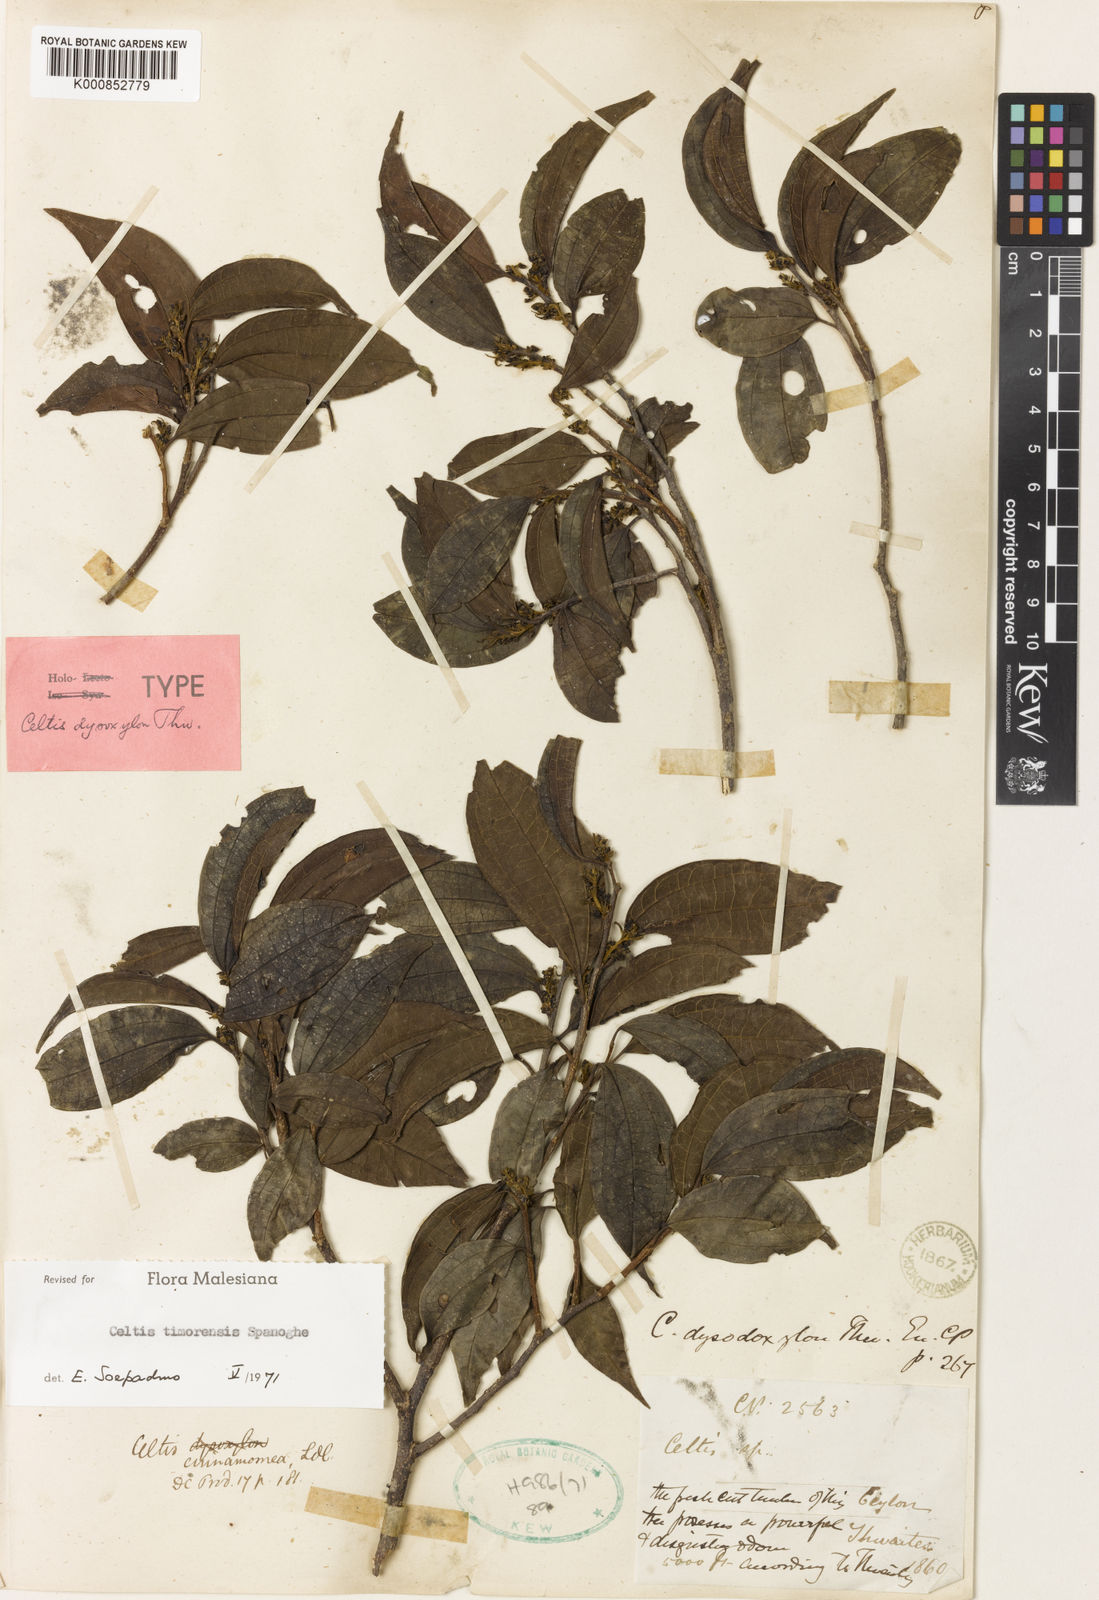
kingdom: Plantae
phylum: Tracheophyta
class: Magnoliopsida
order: Rosales
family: Cannabaceae
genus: Celtis
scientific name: Celtis timorensis
